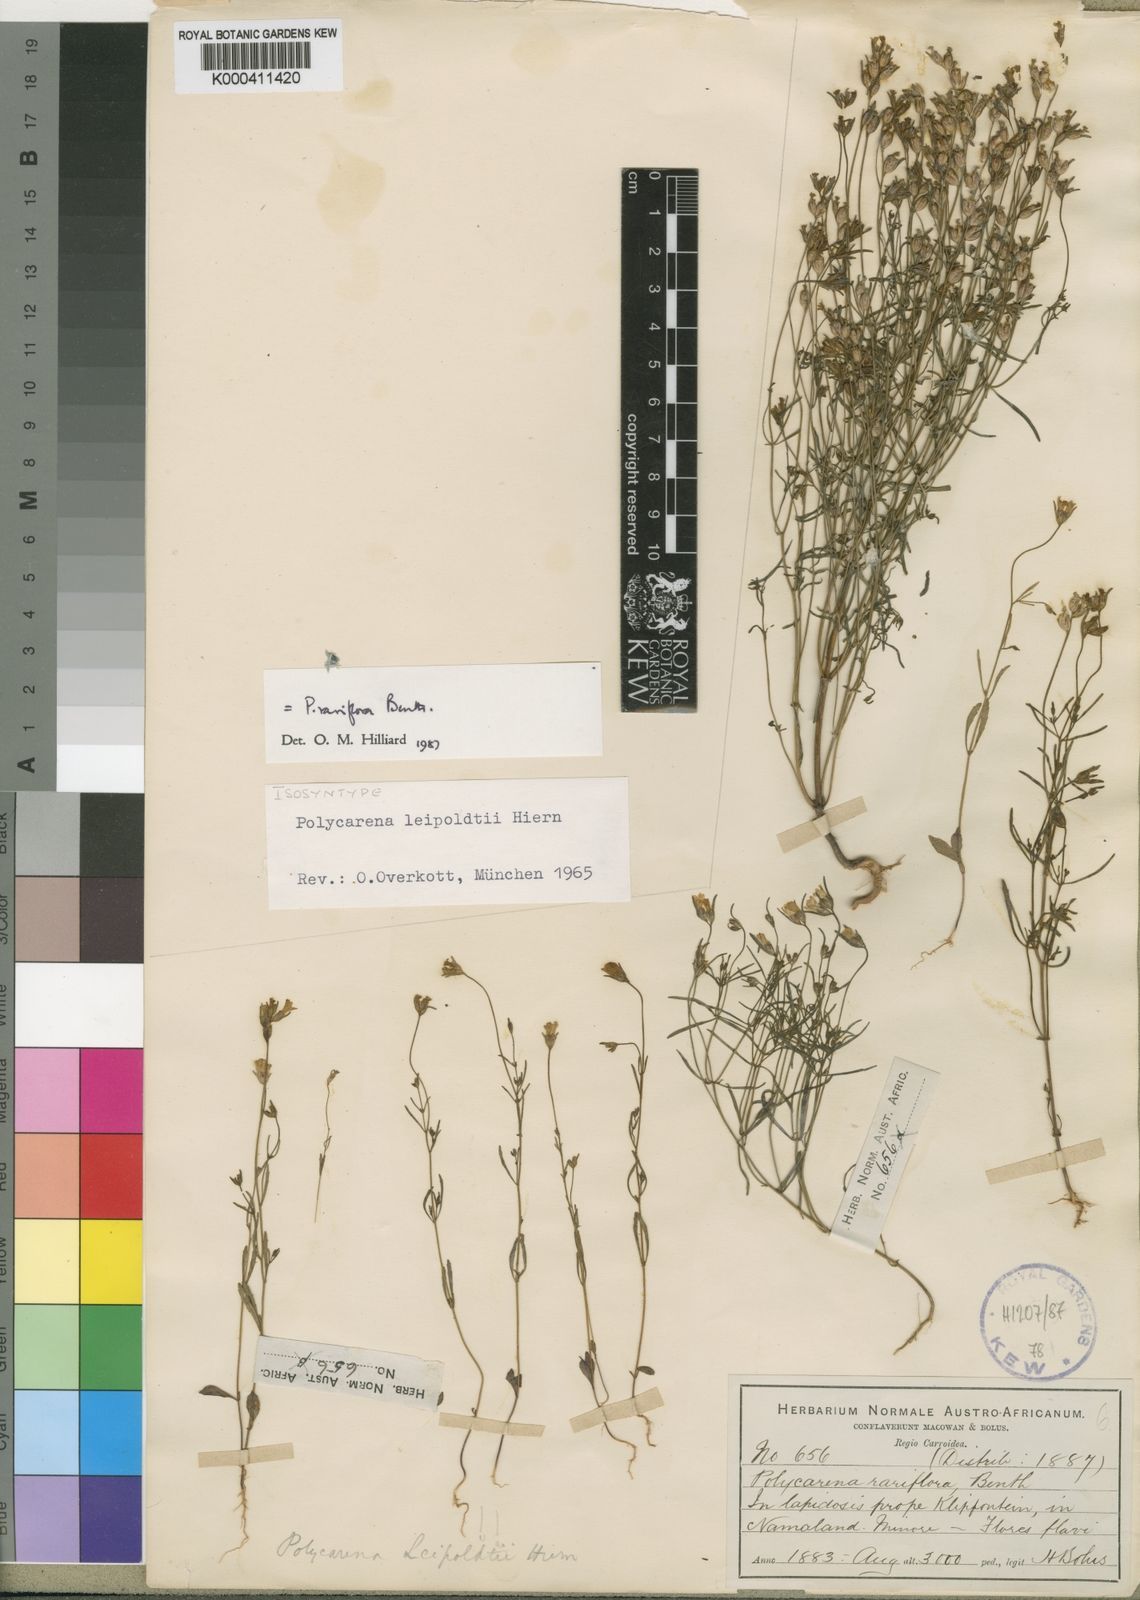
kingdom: Plantae
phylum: Tracheophyta
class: Magnoliopsida
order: Lamiales
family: Scrophulariaceae
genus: Polycarena
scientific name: Polycarena rariflora
